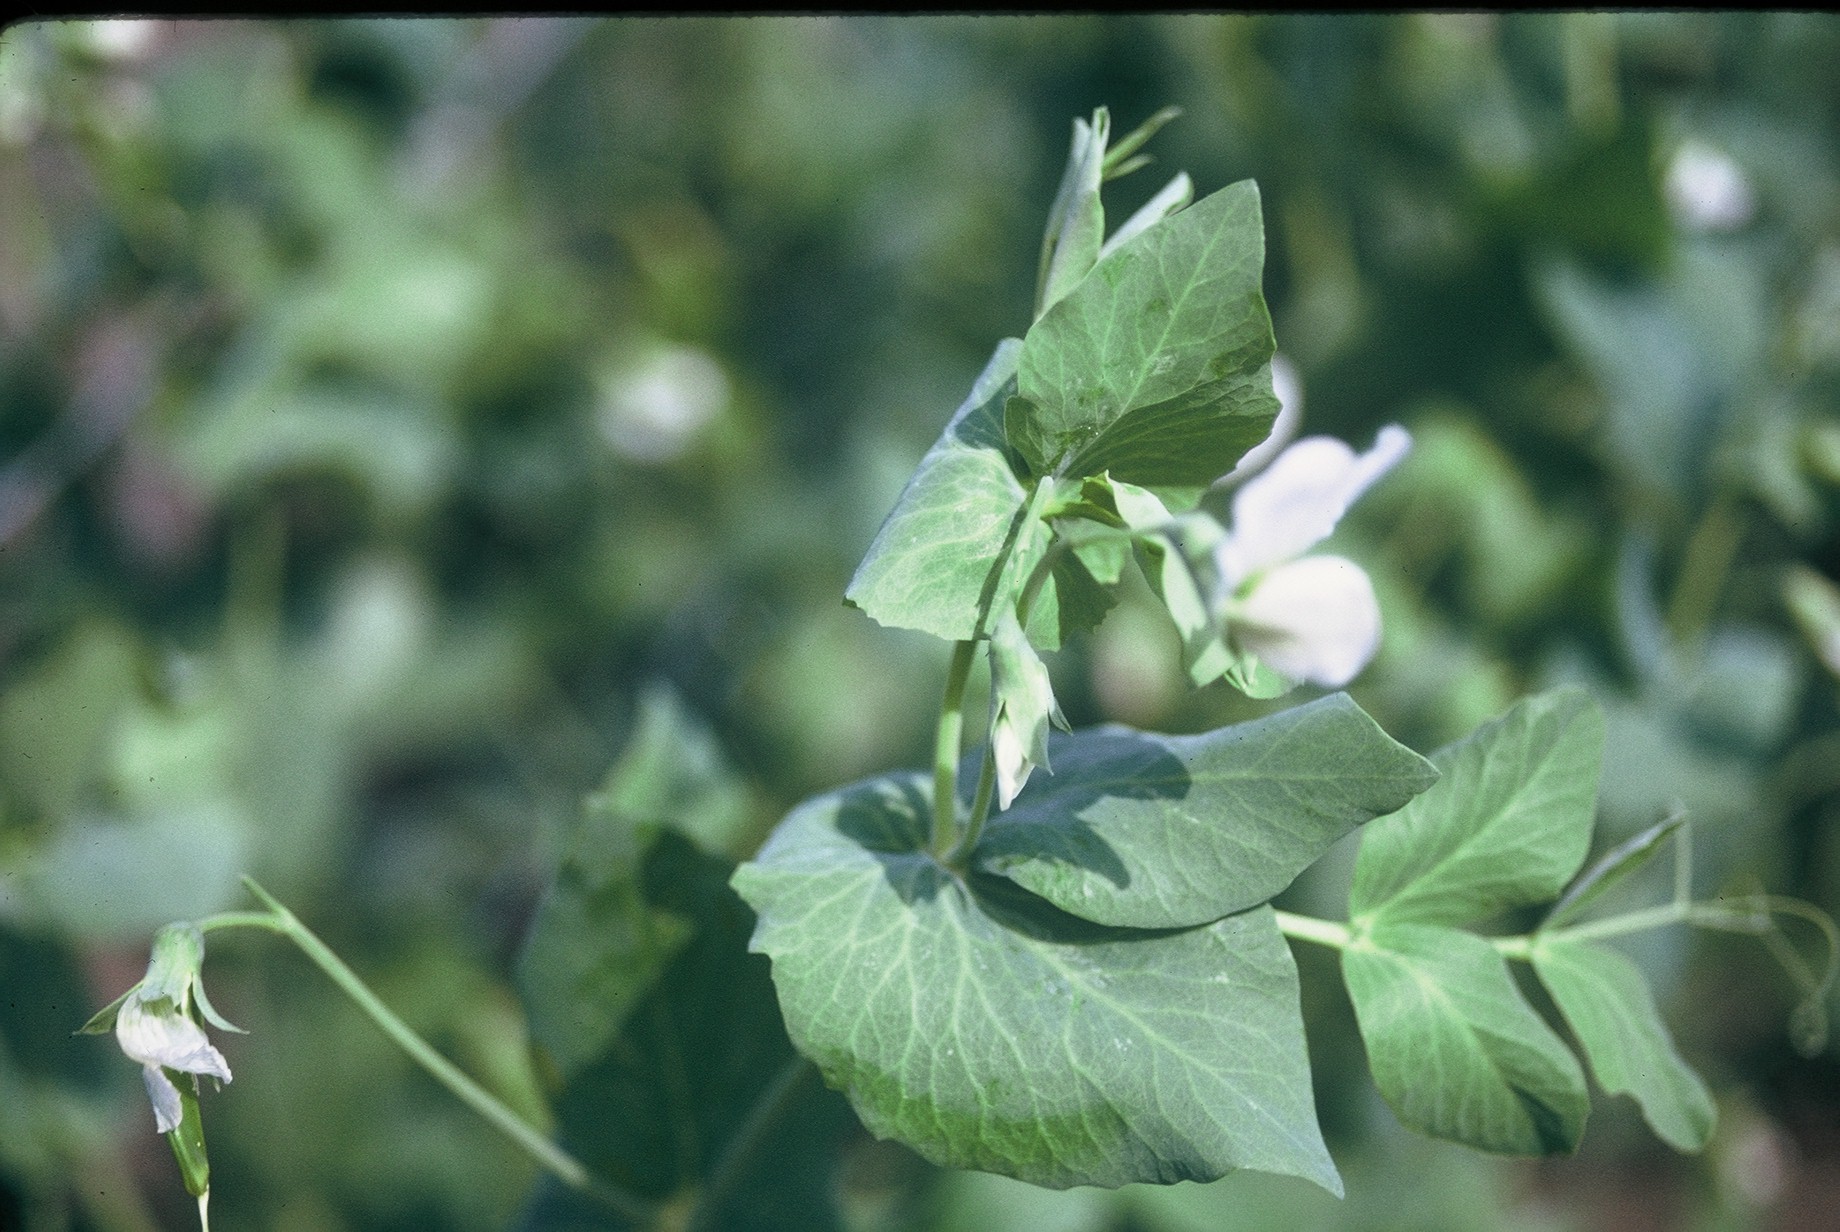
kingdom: Plantae
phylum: Tracheophyta
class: Magnoliopsida
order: Fabales
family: Fabaceae
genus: Lathyrus
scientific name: Lathyrus oleraceus
